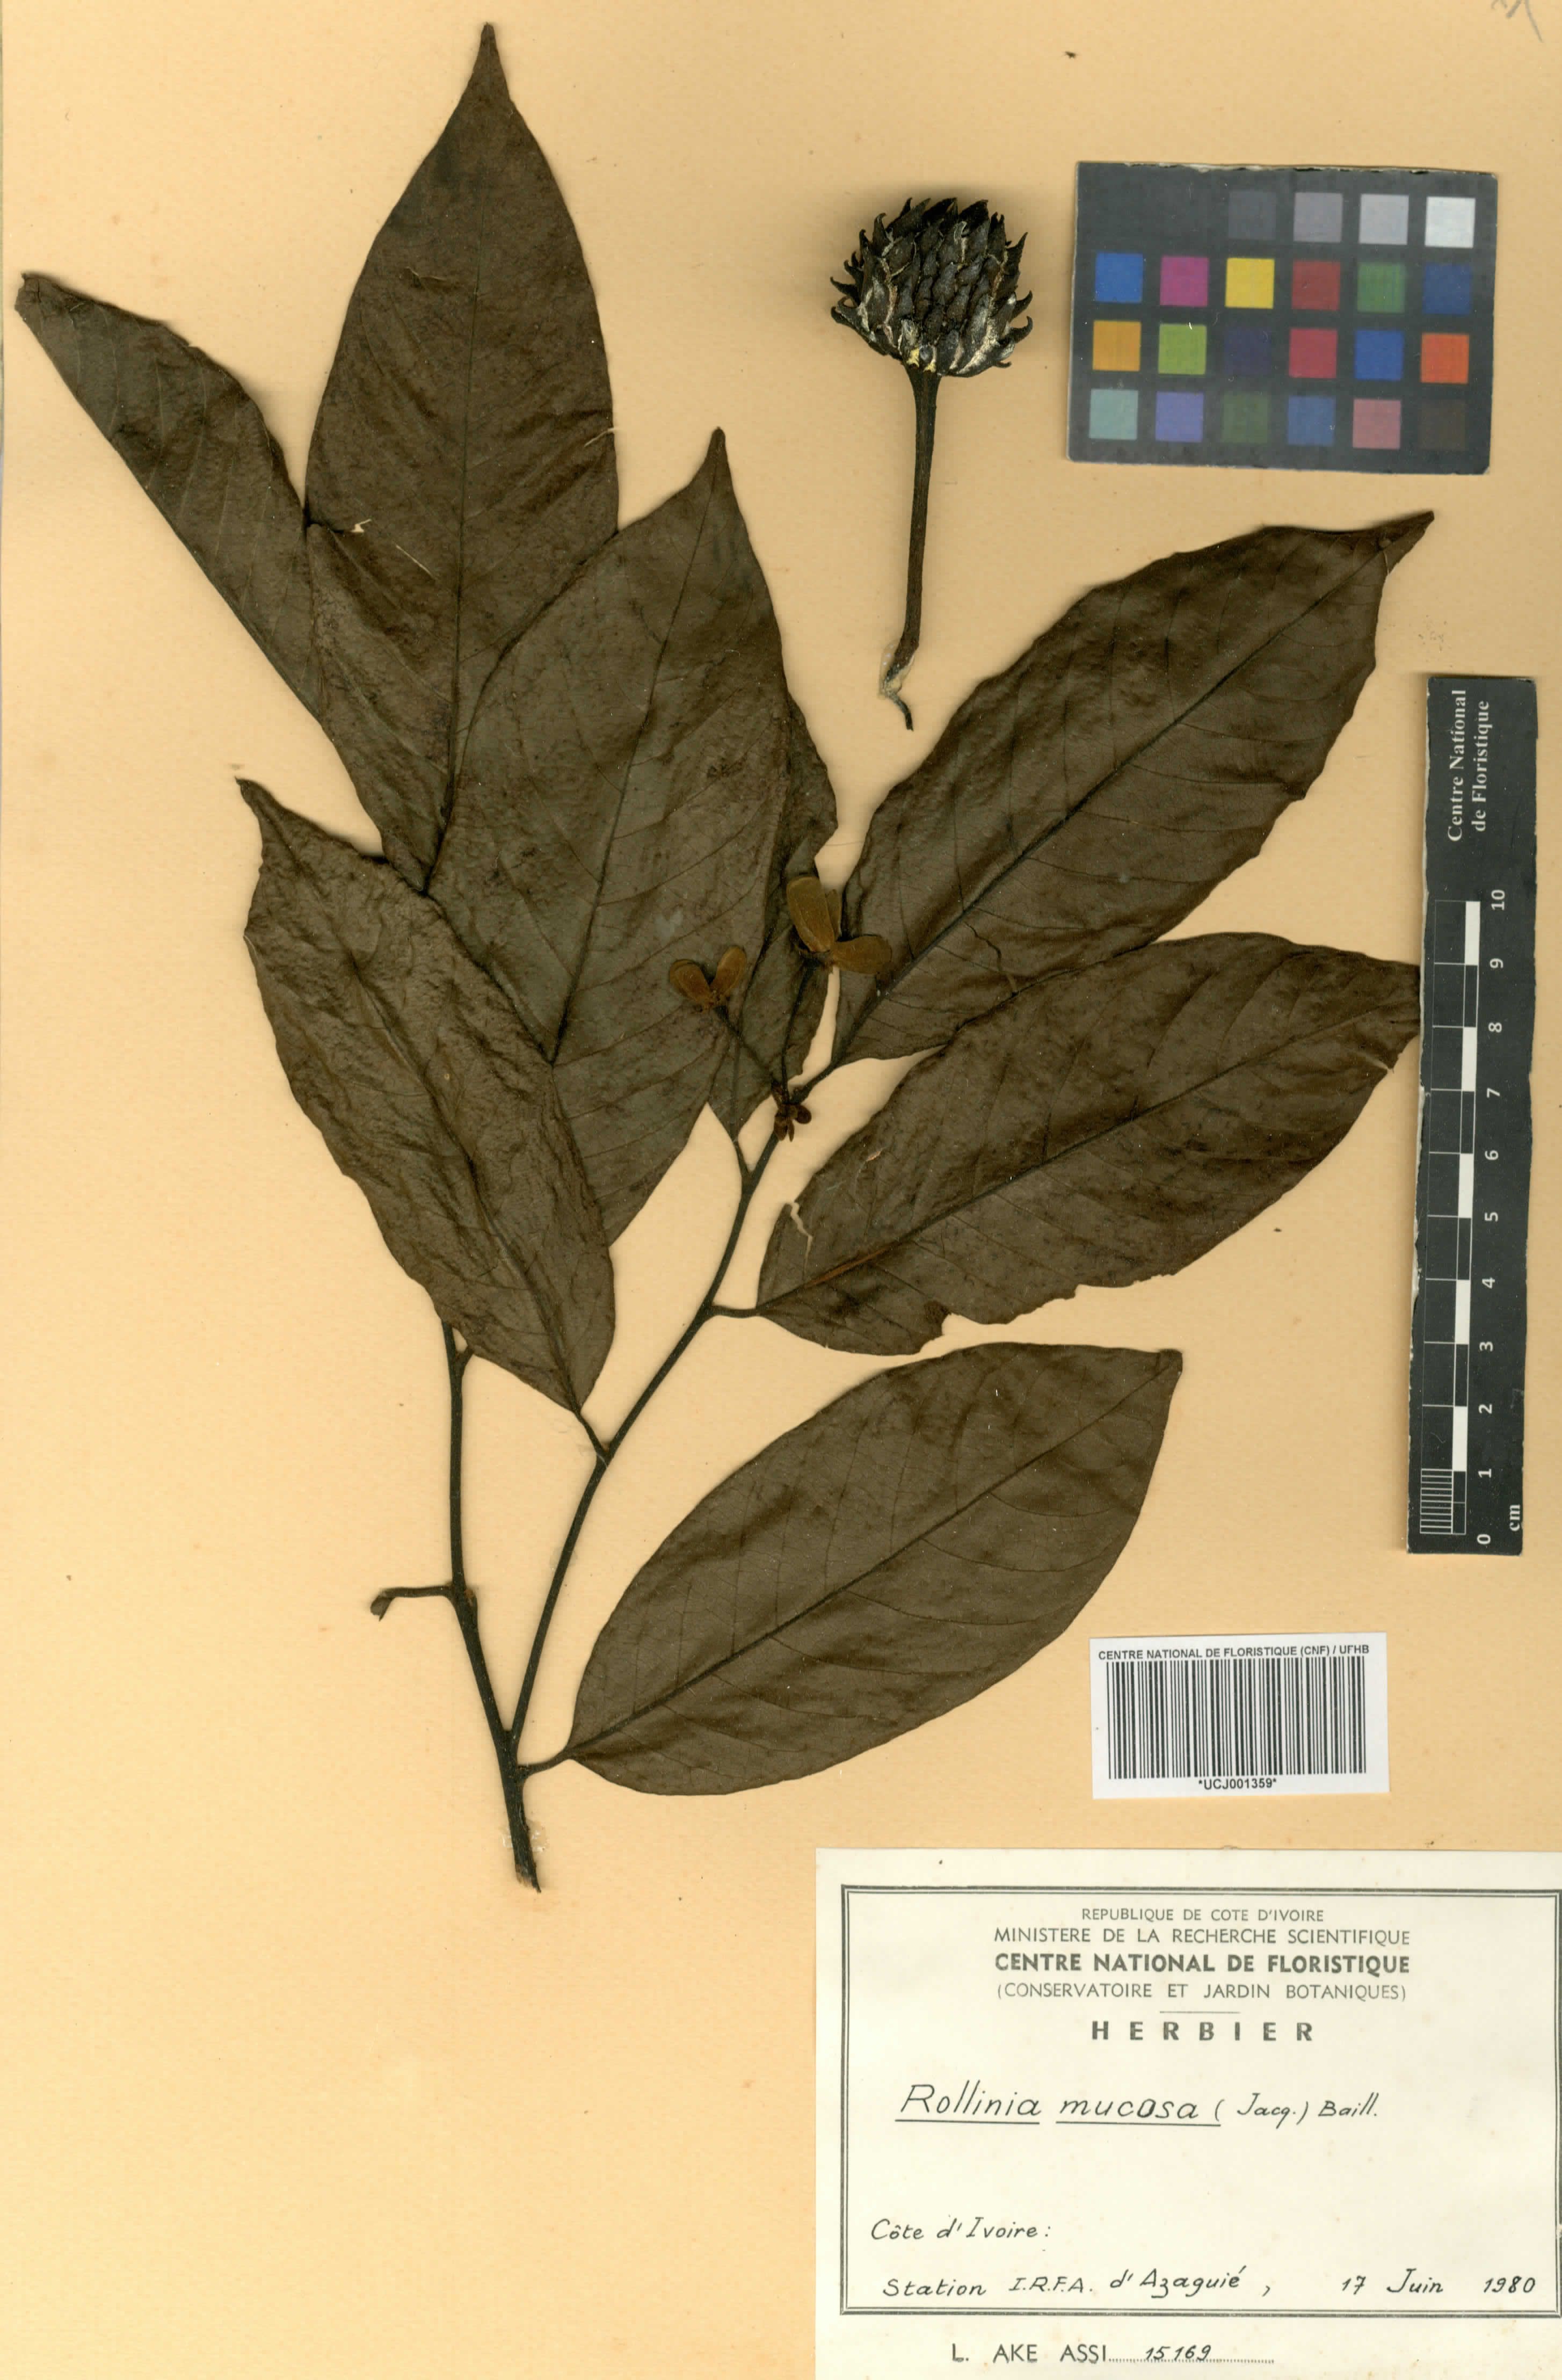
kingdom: Plantae
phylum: Tracheophyta
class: Magnoliopsida
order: Magnoliales
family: Annonaceae
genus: Annona
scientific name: Annona mucosa
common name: Sugar apple
